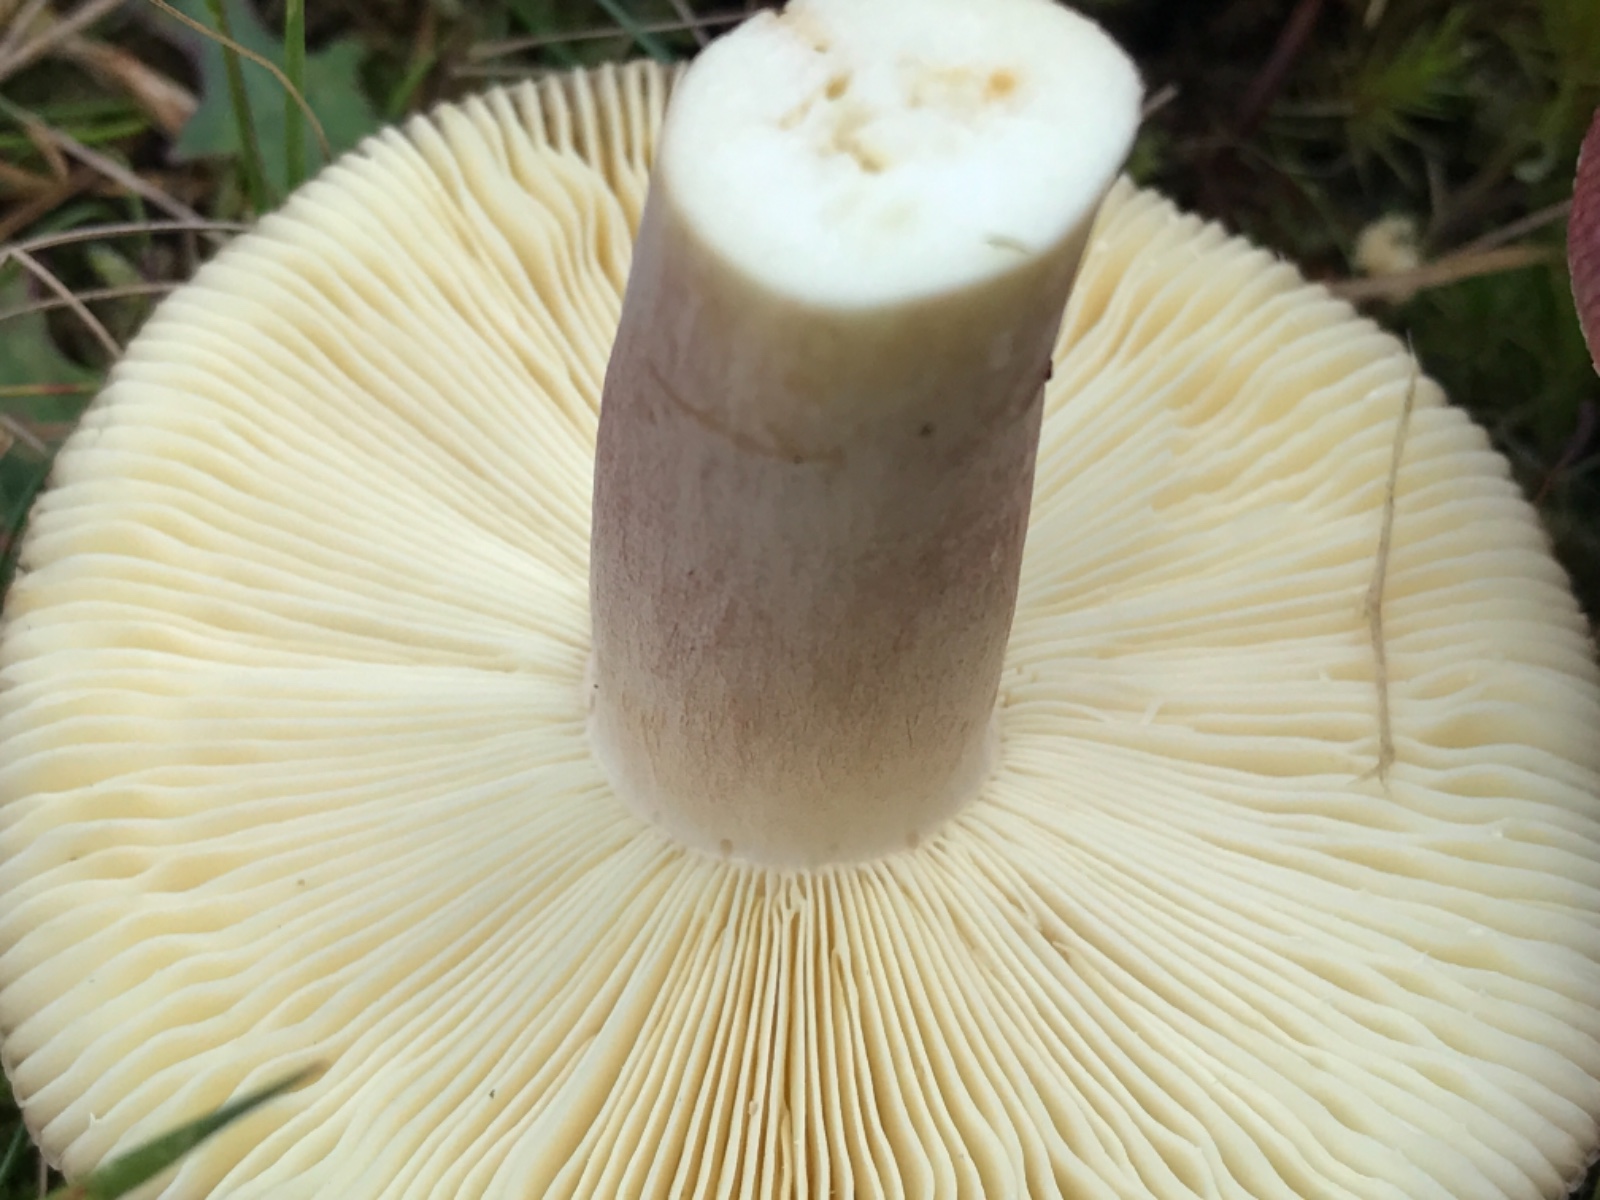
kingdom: Fungi
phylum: Basidiomycota
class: Agaricomycetes
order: Russulales
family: Russulaceae
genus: Russula
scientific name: Russula sardonia
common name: citronbladet skørhat
